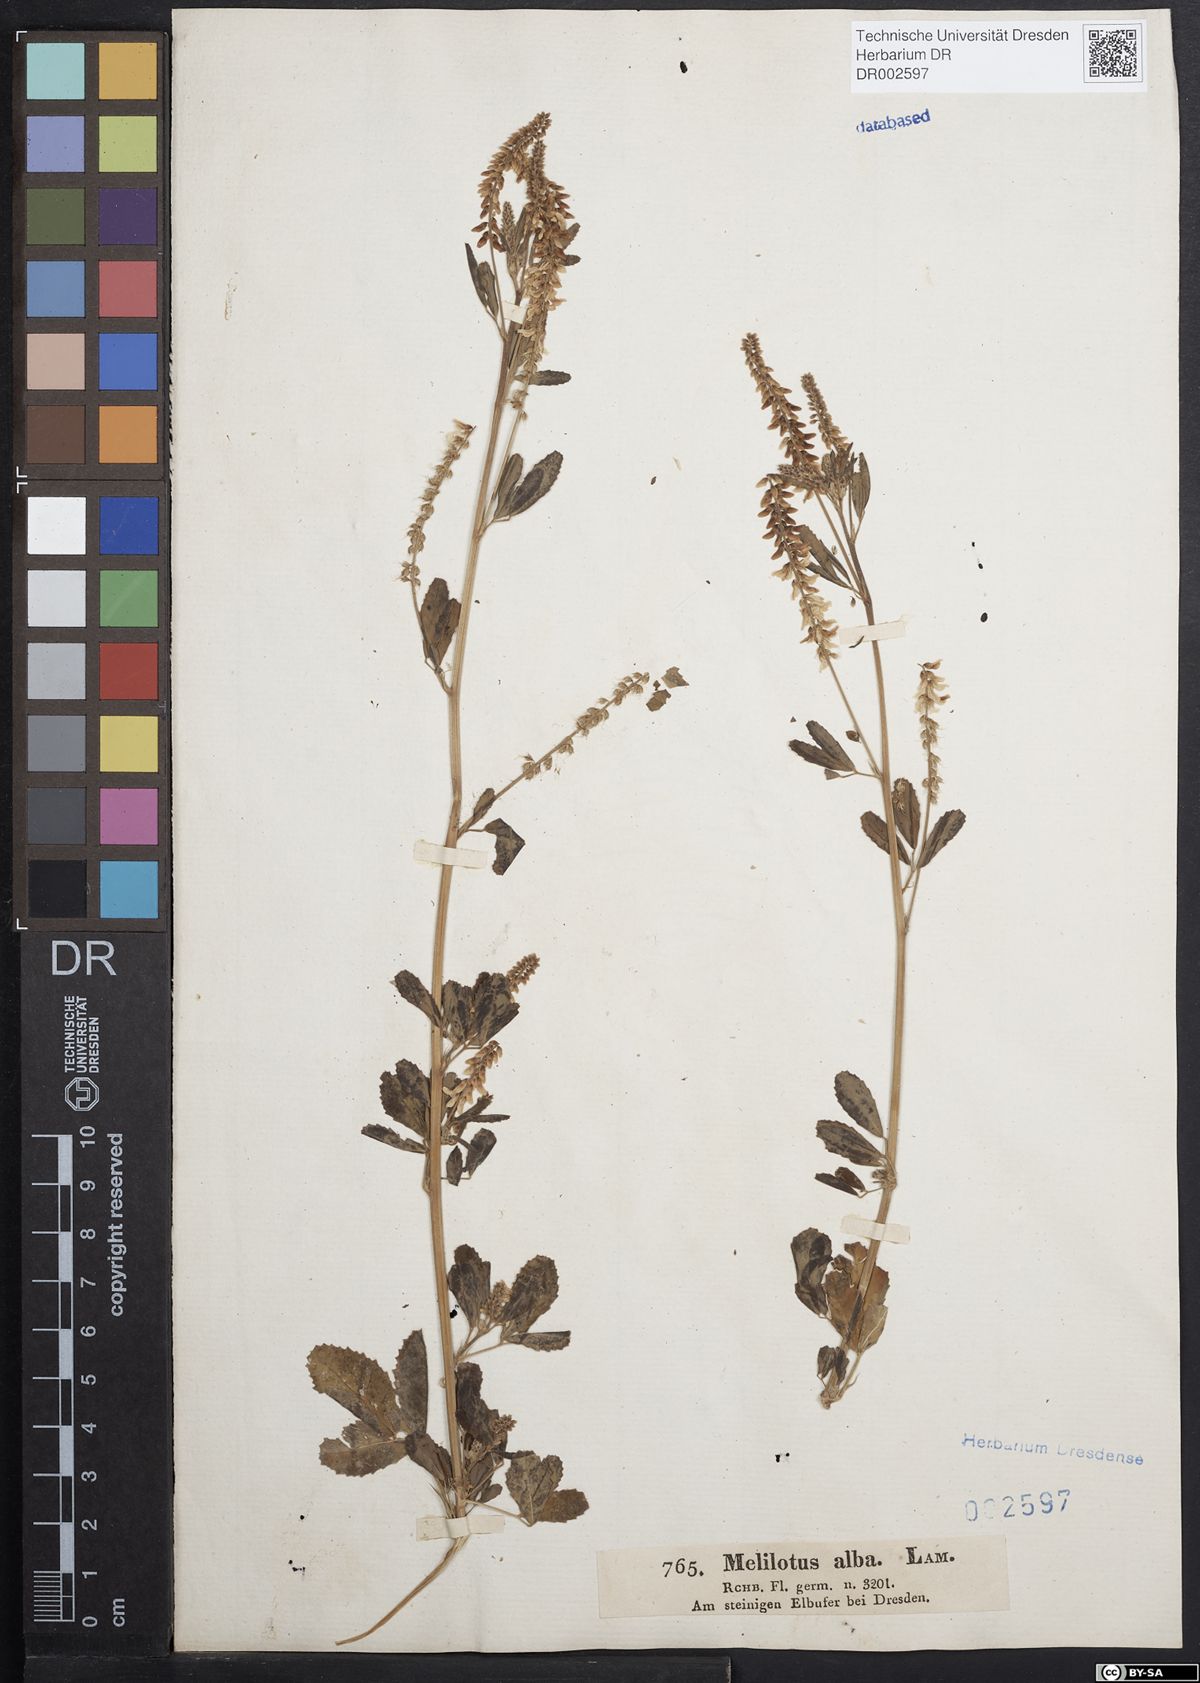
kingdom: Plantae
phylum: Tracheophyta
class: Magnoliopsida
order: Fabales
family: Fabaceae
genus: Melilotus
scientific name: Melilotus albus
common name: White melilot
